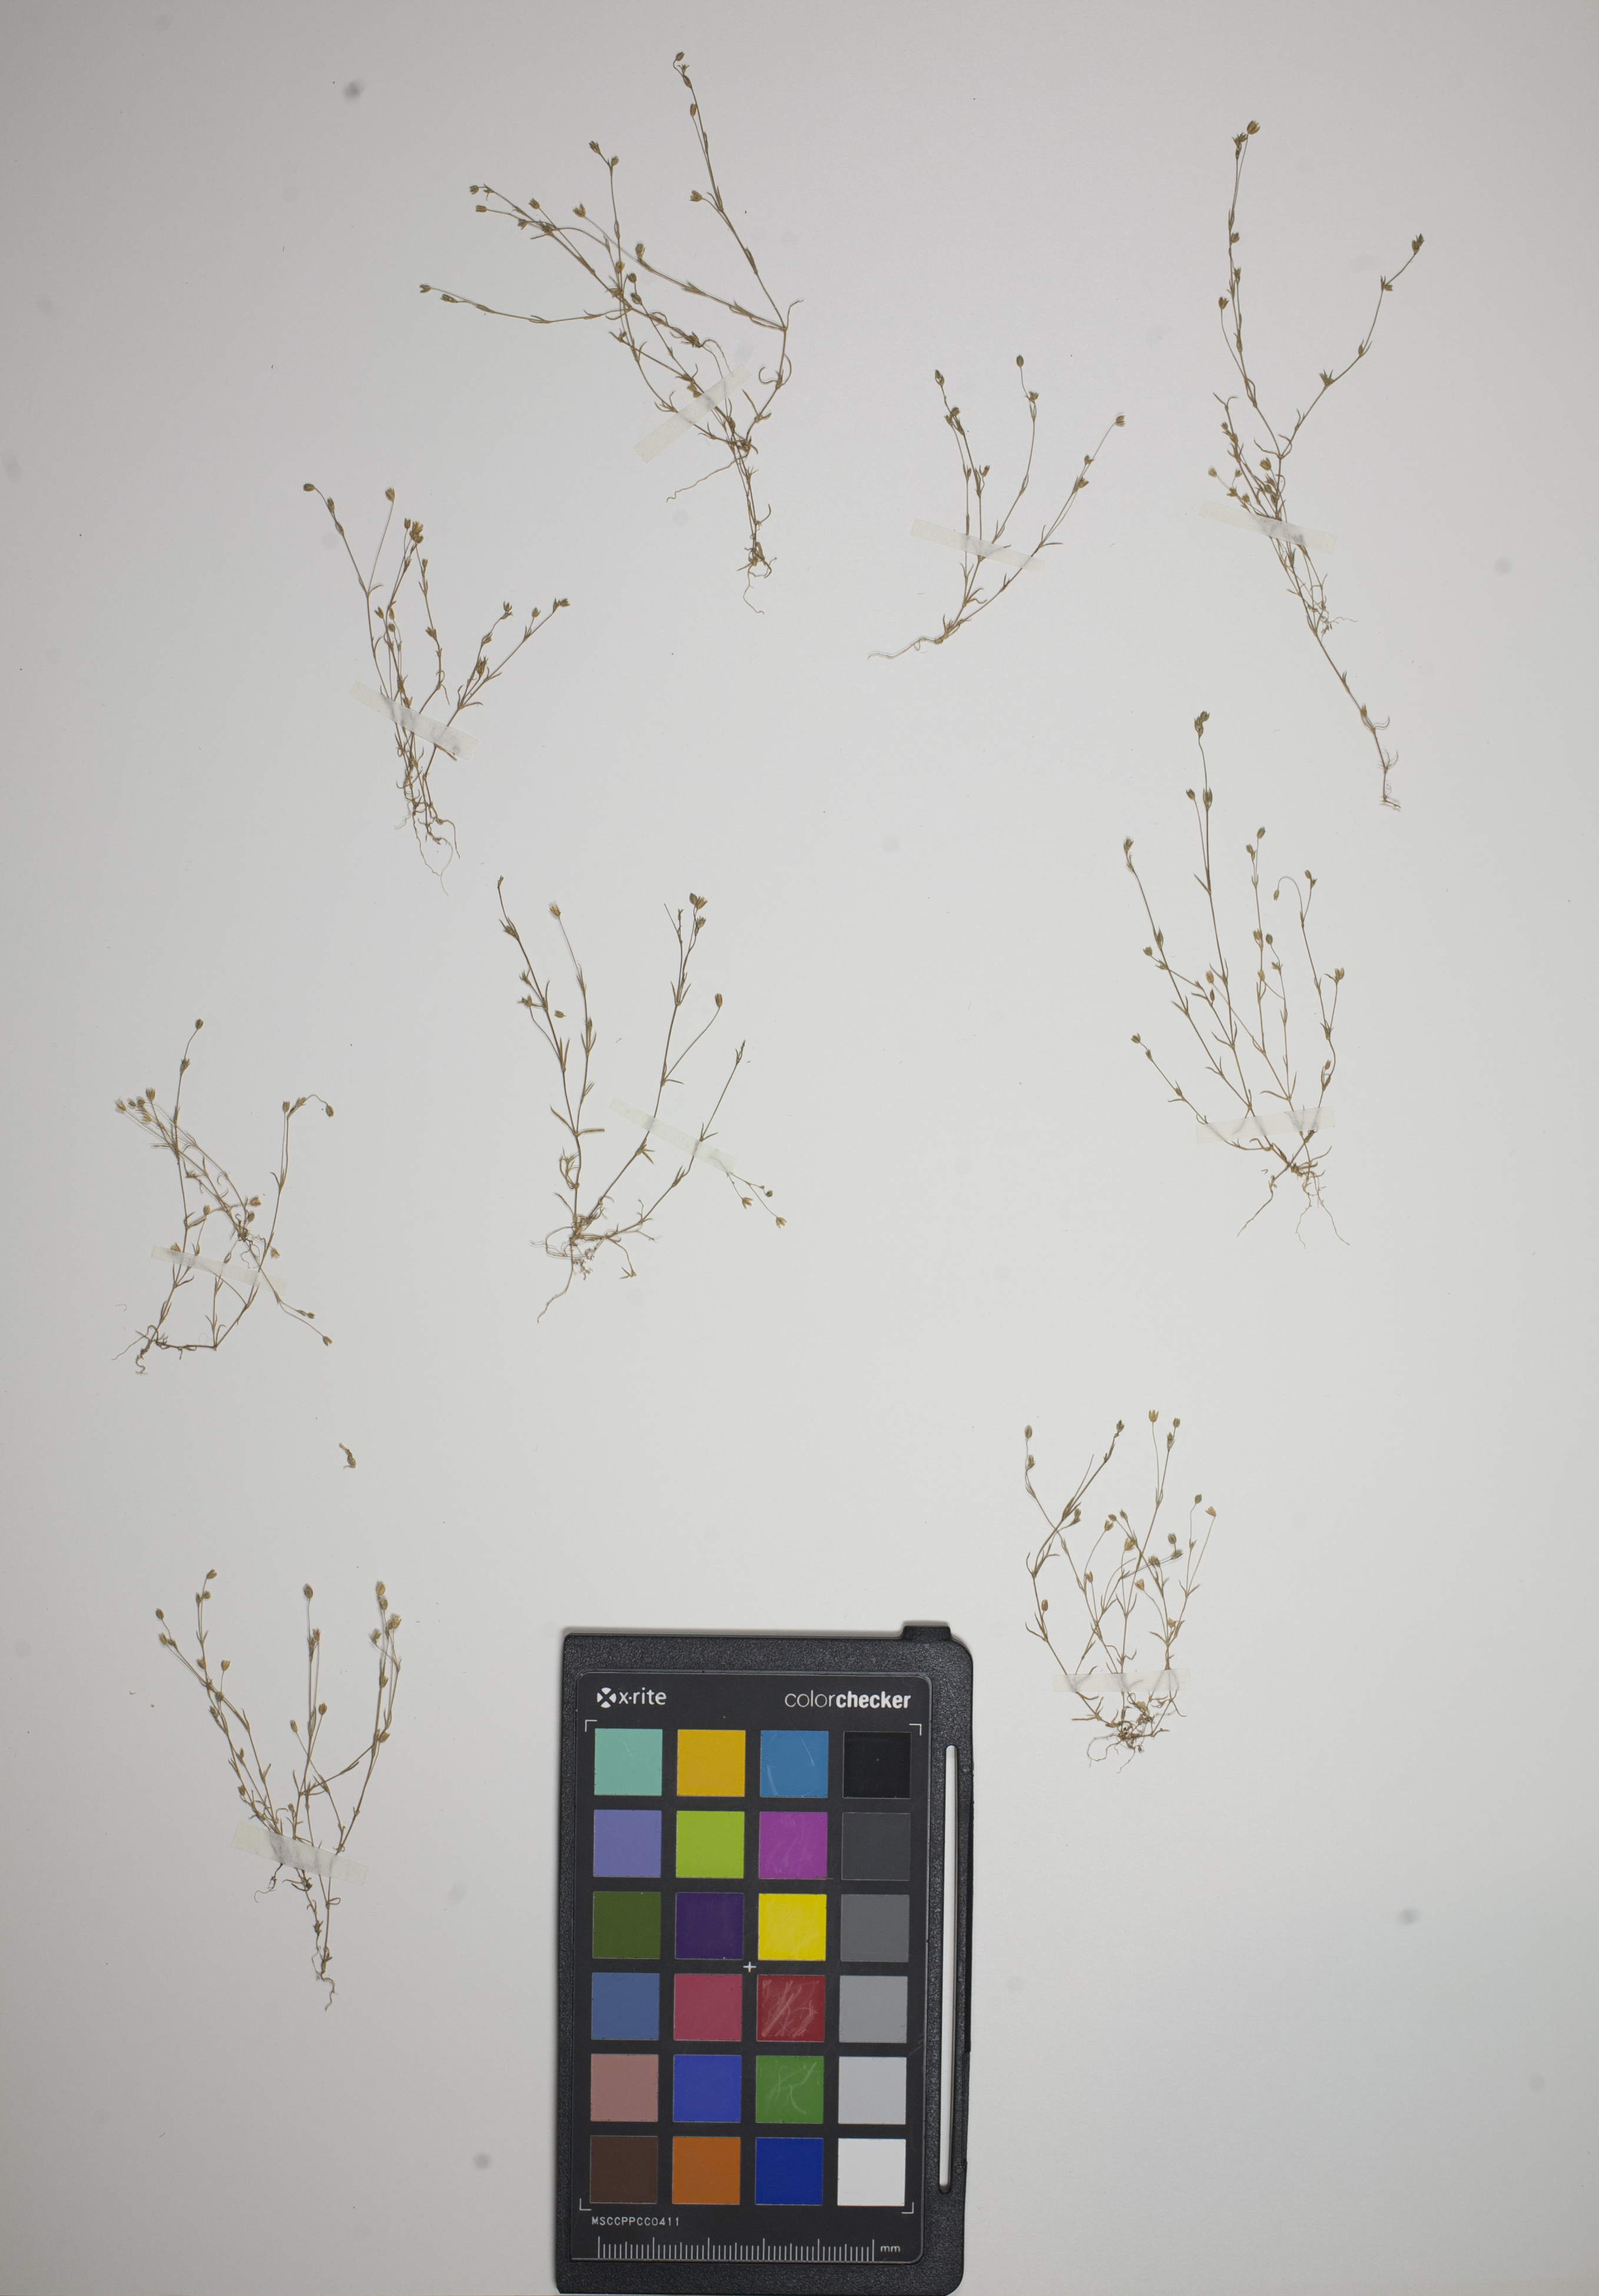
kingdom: Plantae
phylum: Tracheophyta
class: Magnoliopsida
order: Caryophyllales
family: Caryophyllaceae
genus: Sagina
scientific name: Sagina apetala
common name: Annual pearlwort
